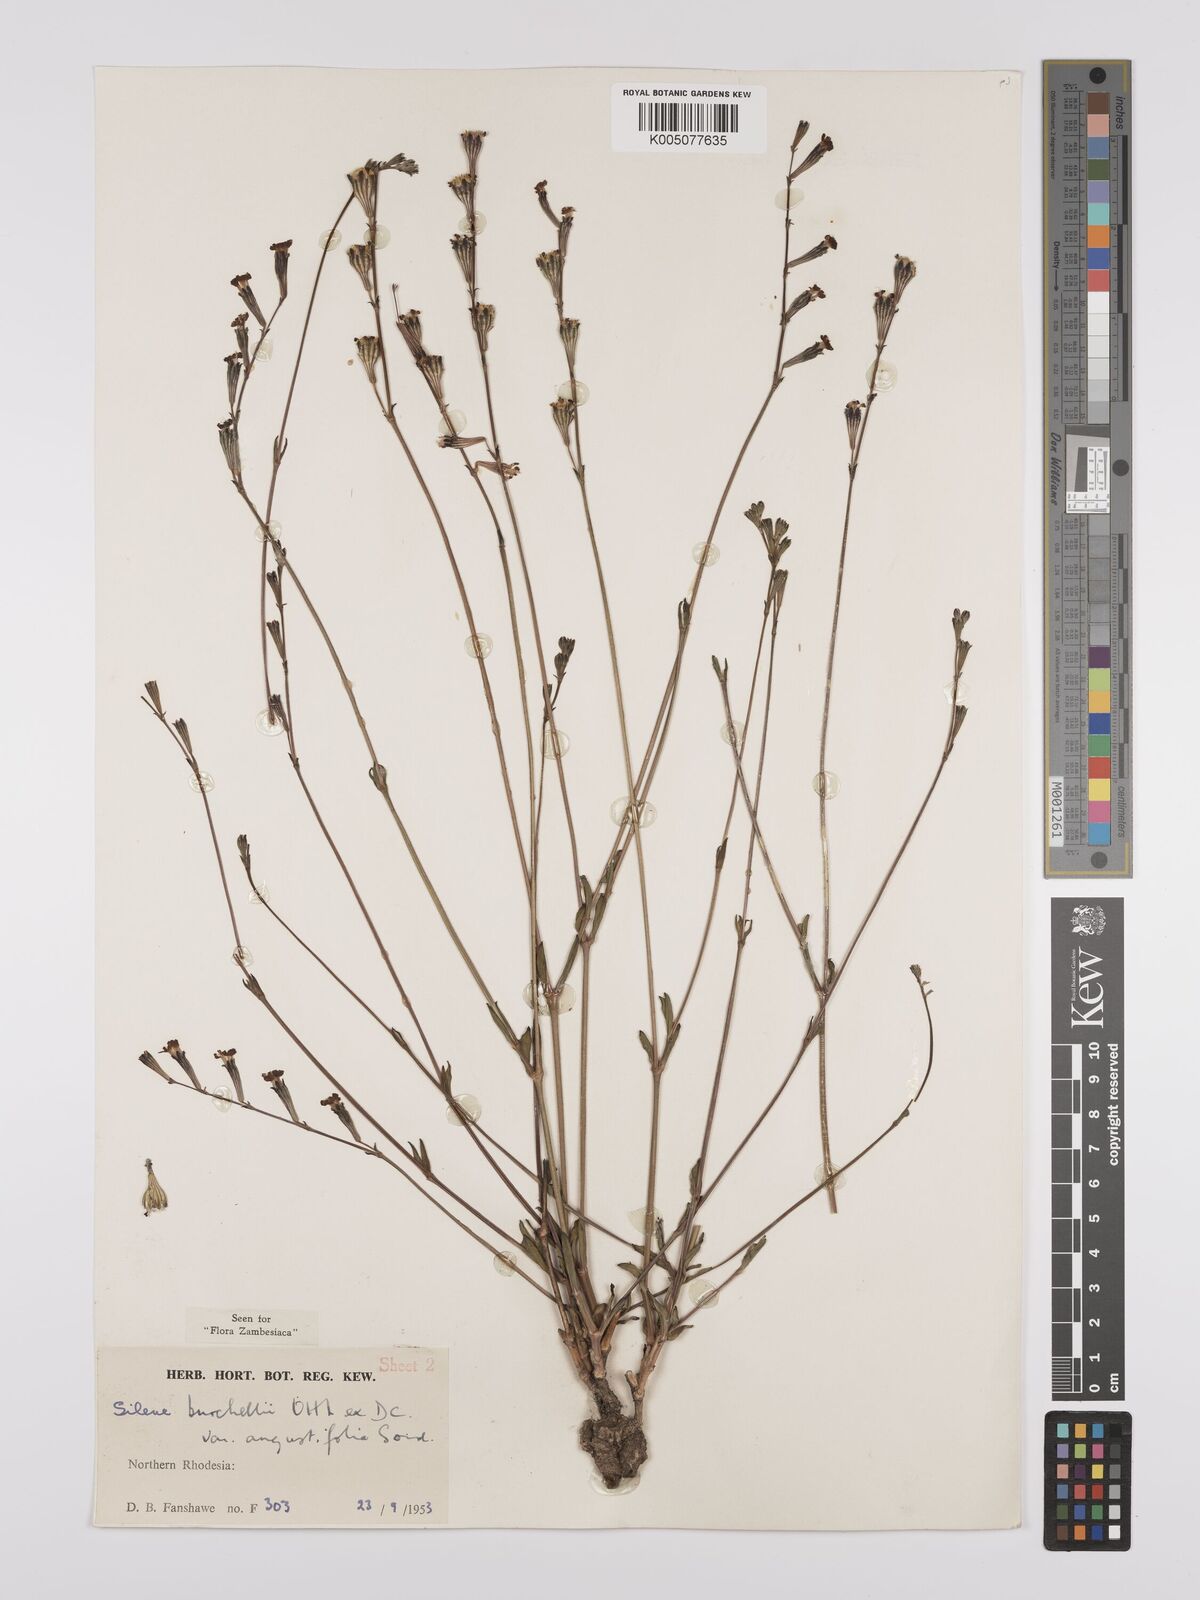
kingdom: Plantae
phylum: Tracheophyta
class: Magnoliopsida
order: Caryophyllales
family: Caryophyllaceae
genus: Silene
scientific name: Silene burchellii
